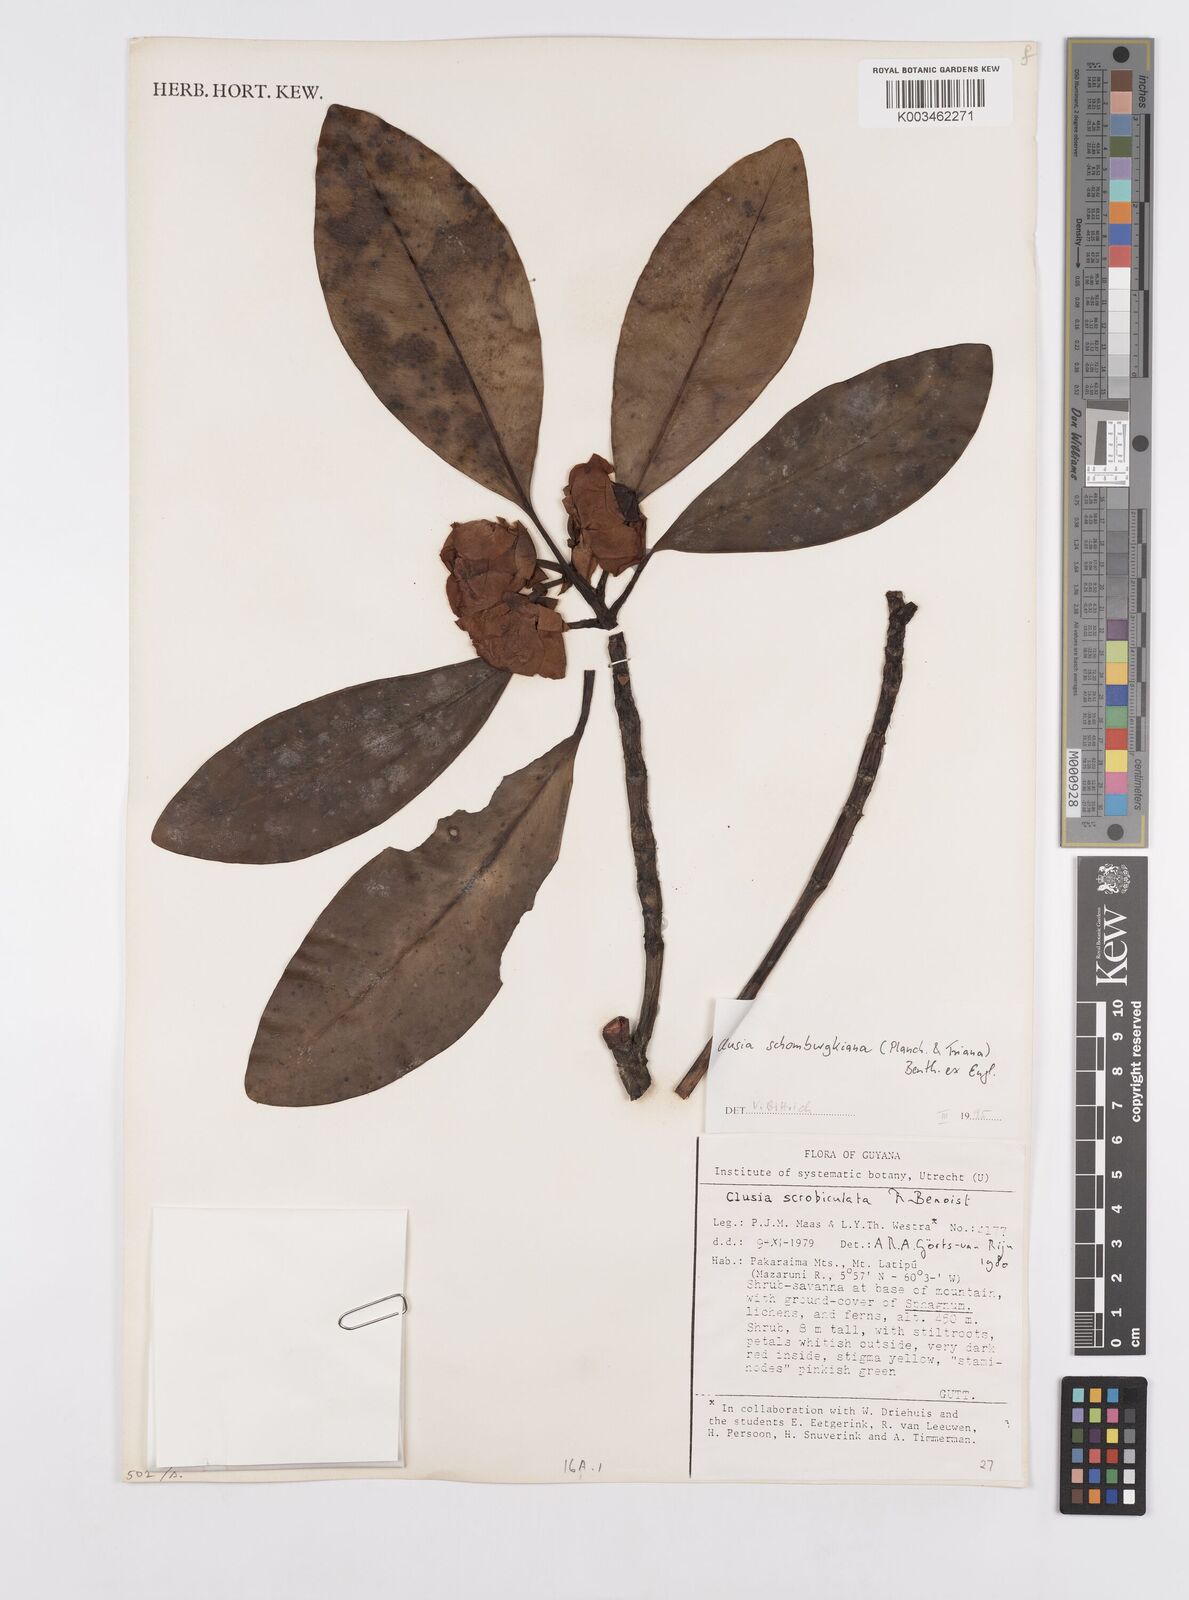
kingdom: Plantae
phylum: Tracheophyta
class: Magnoliopsida
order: Malpighiales
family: Clusiaceae
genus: Clusia
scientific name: Clusia schomburgkiana
